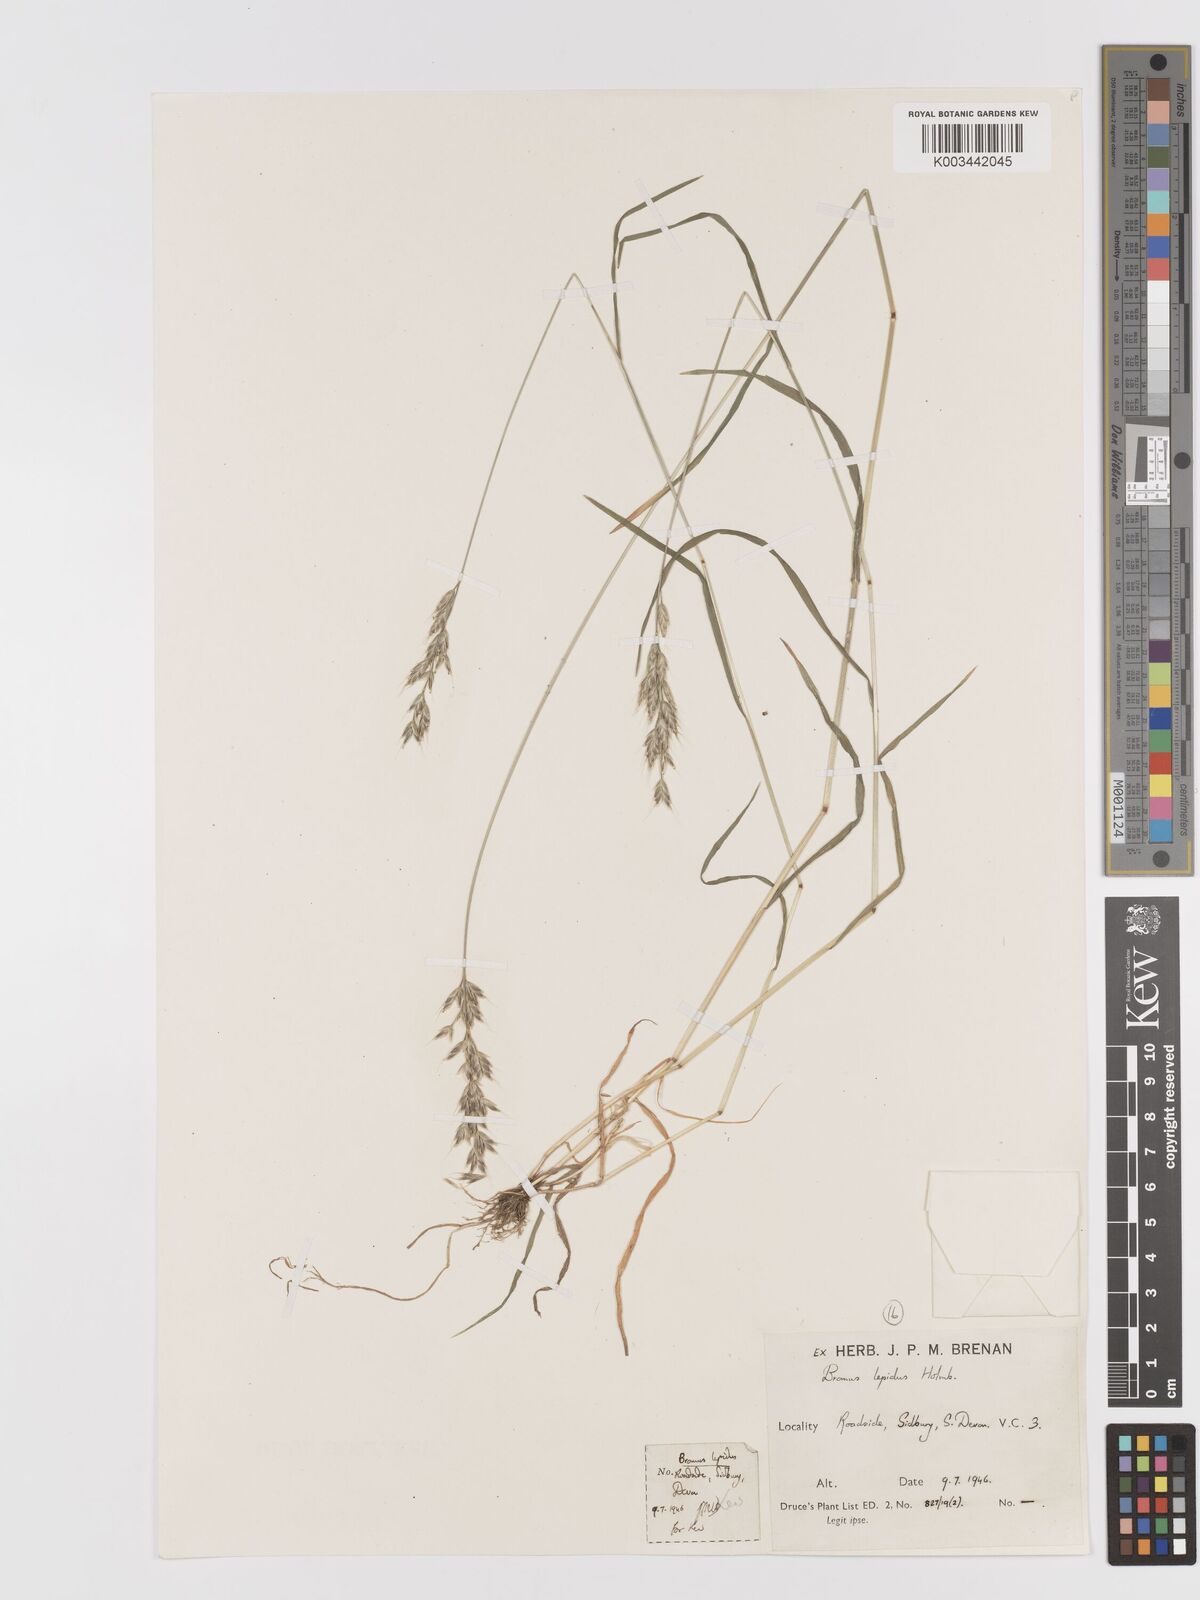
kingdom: Plantae
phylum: Tracheophyta
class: Liliopsida
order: Poales
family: Poaceae
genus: Bromus
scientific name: Bromus lepidus
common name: Slender soft-brome
